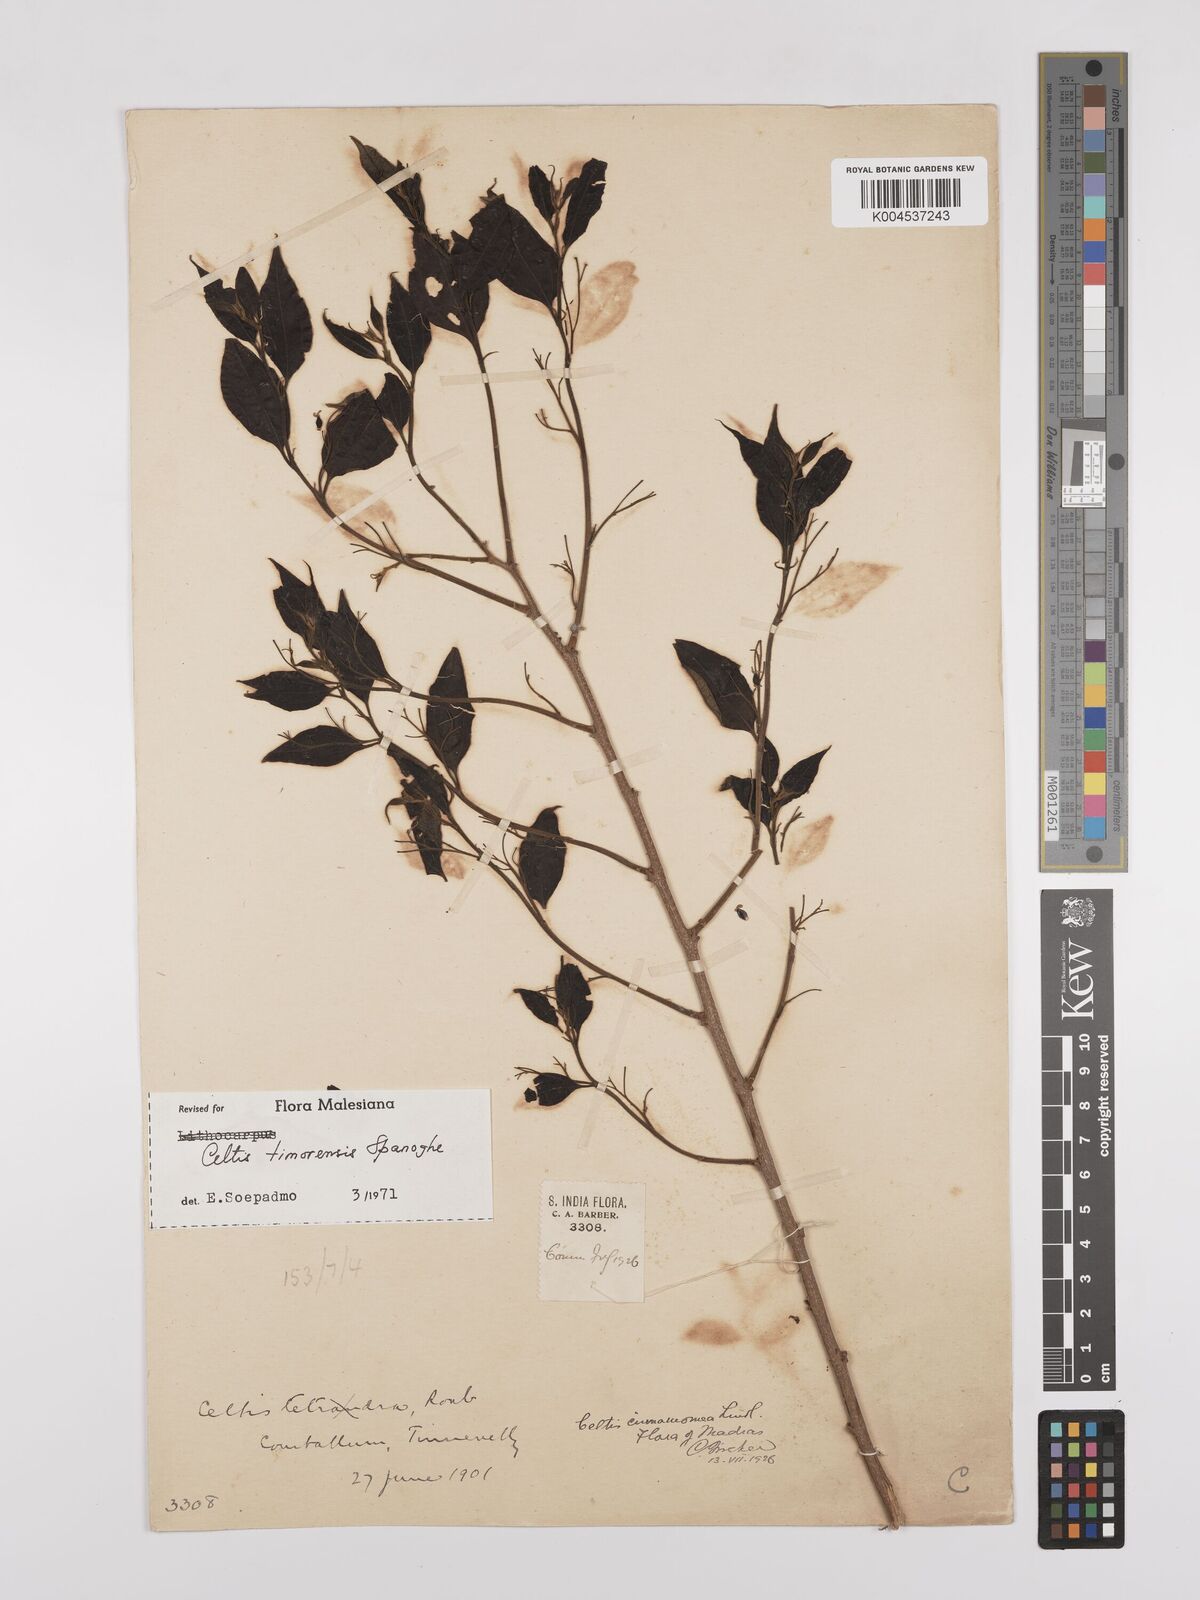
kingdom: Plantae
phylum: Tracheophyta
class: Magnoliopsida
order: Rosales
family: Cannabaceae
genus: Celtis
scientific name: Celtis timorensis
